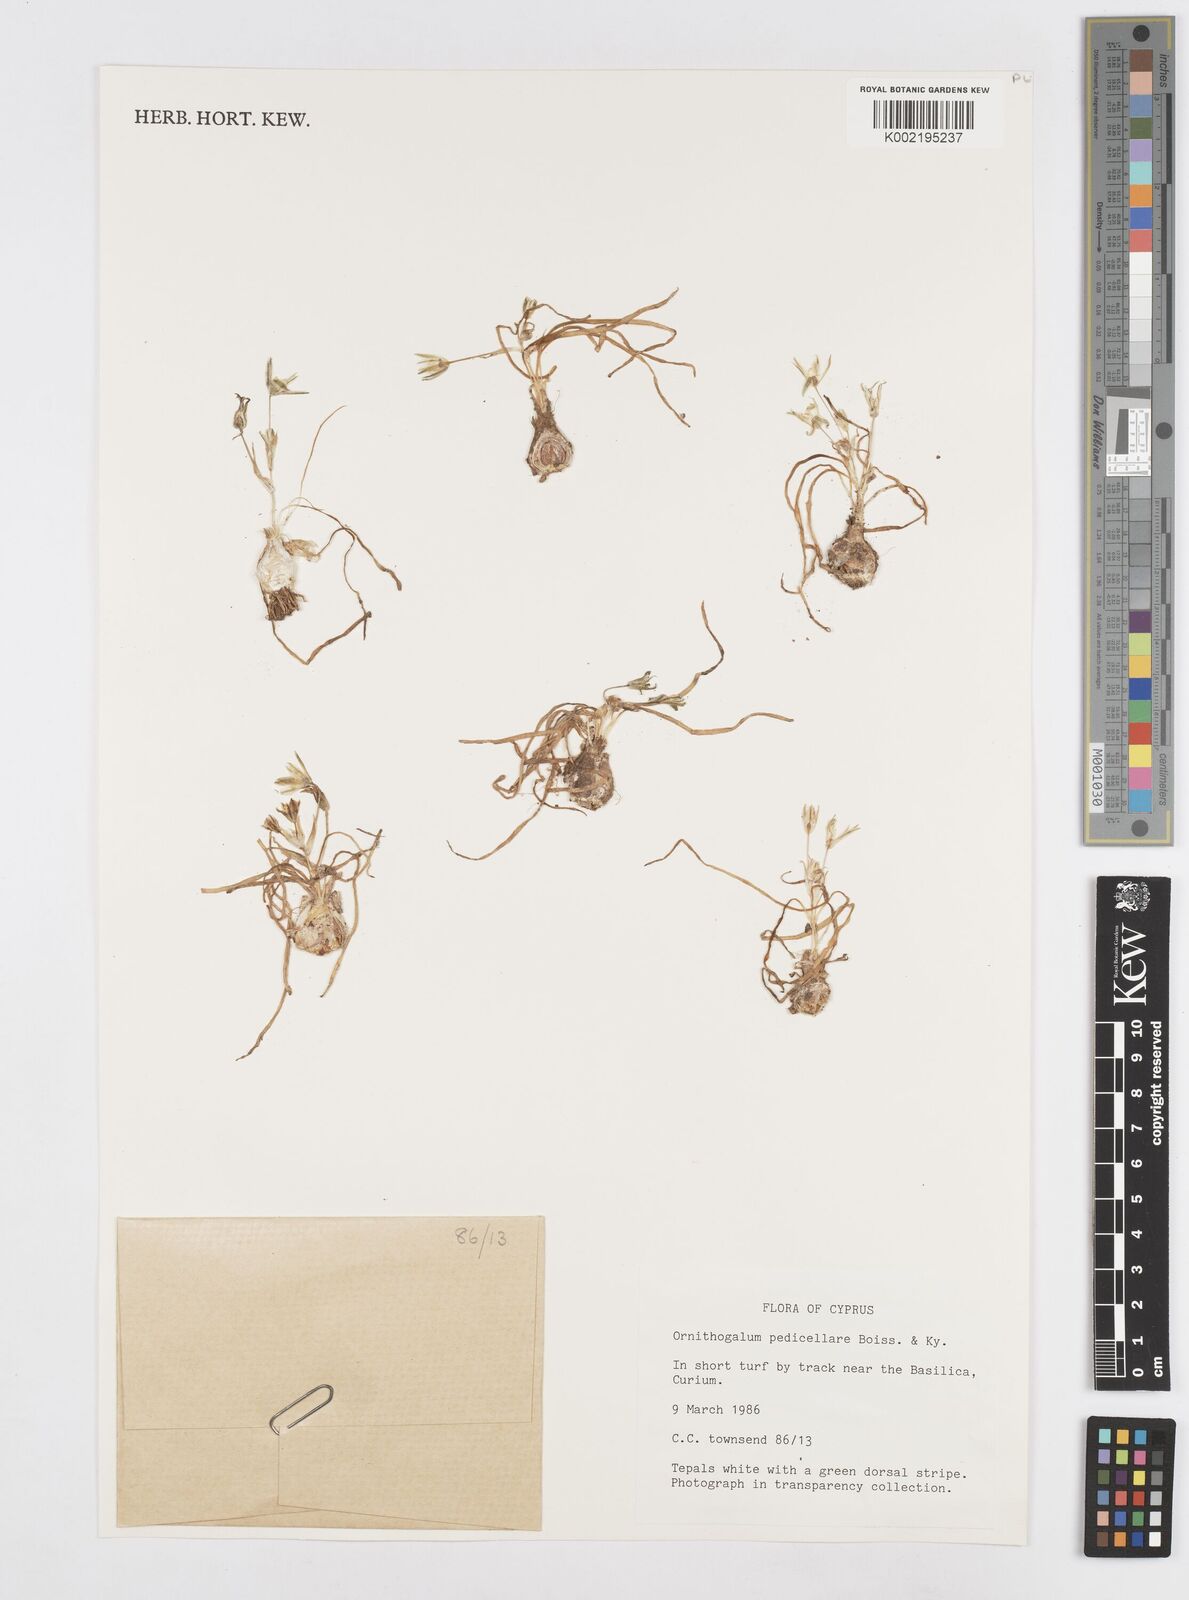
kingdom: Plantae
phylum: Tracheophyta
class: Liliopsida
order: Asparagales
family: Asparagaceae
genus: Ornithogalum
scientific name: Ornithogalum pedicellare
